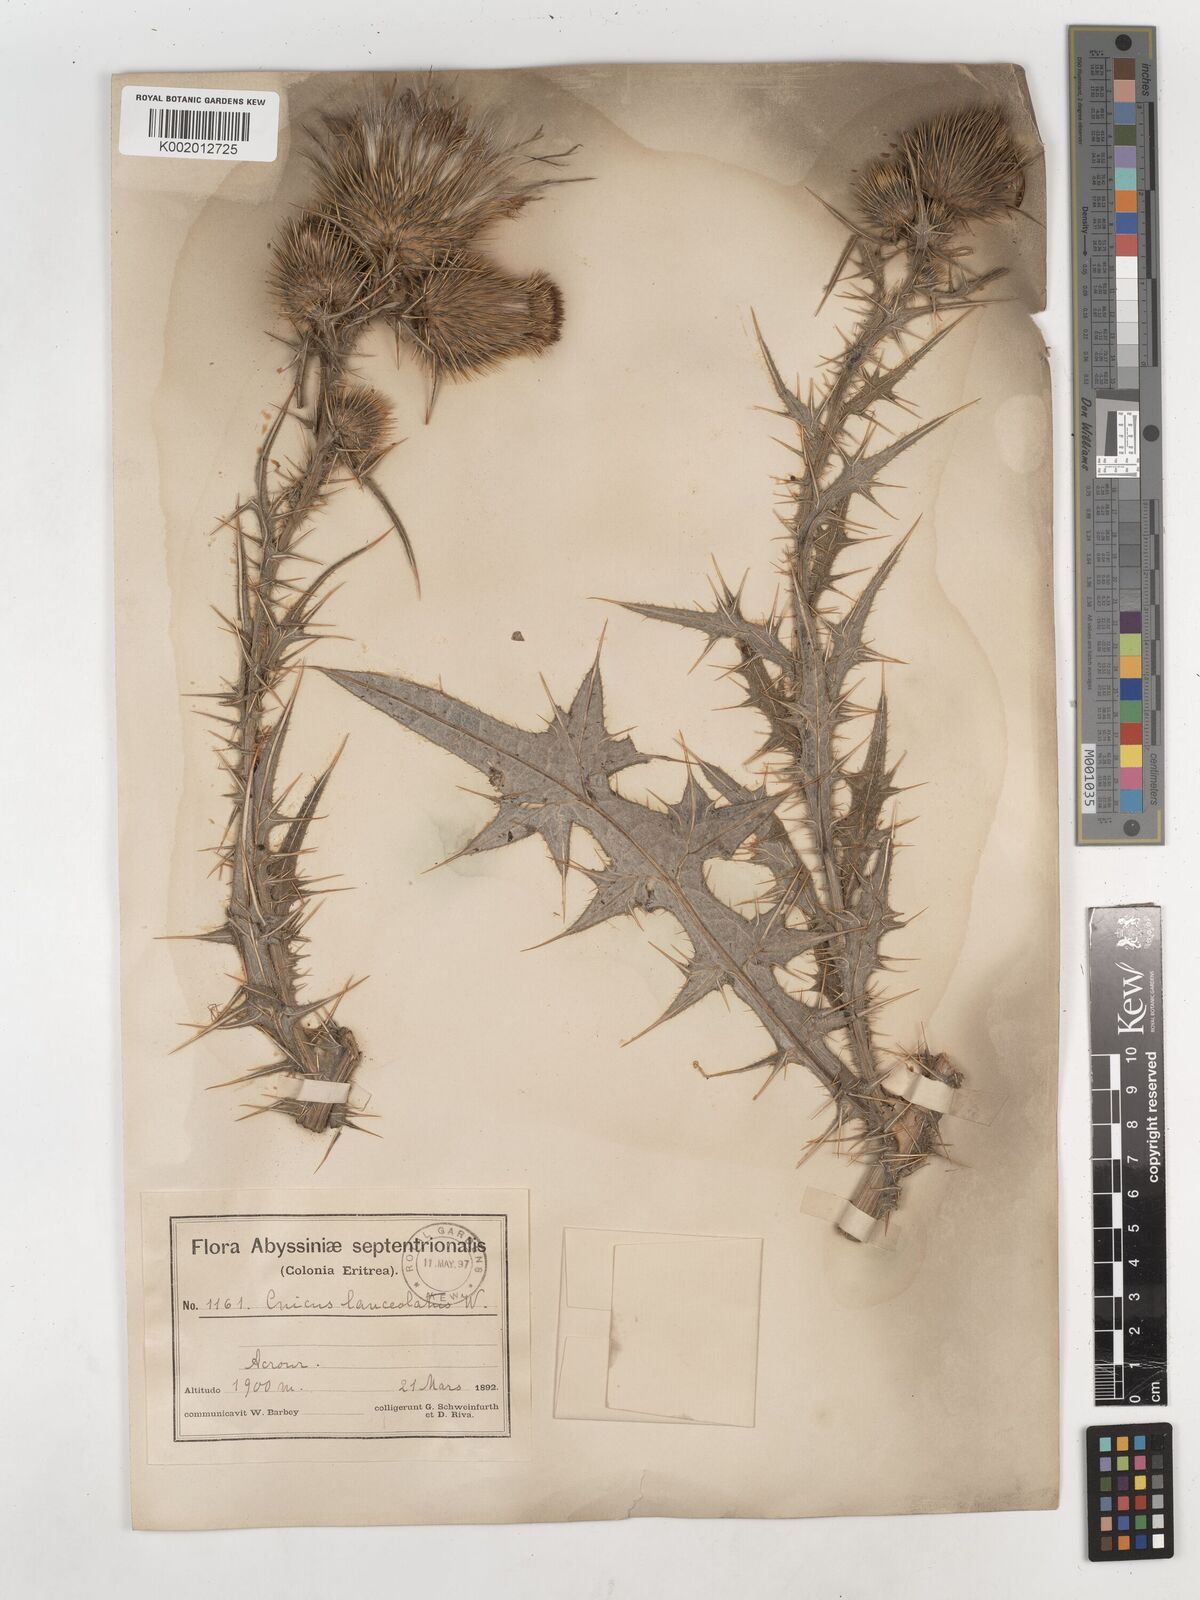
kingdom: Plantae
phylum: Tracheophyta
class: Magnoliopsida
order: Asterales
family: Asteraceae
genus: Cirsium
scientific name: Cirsium
